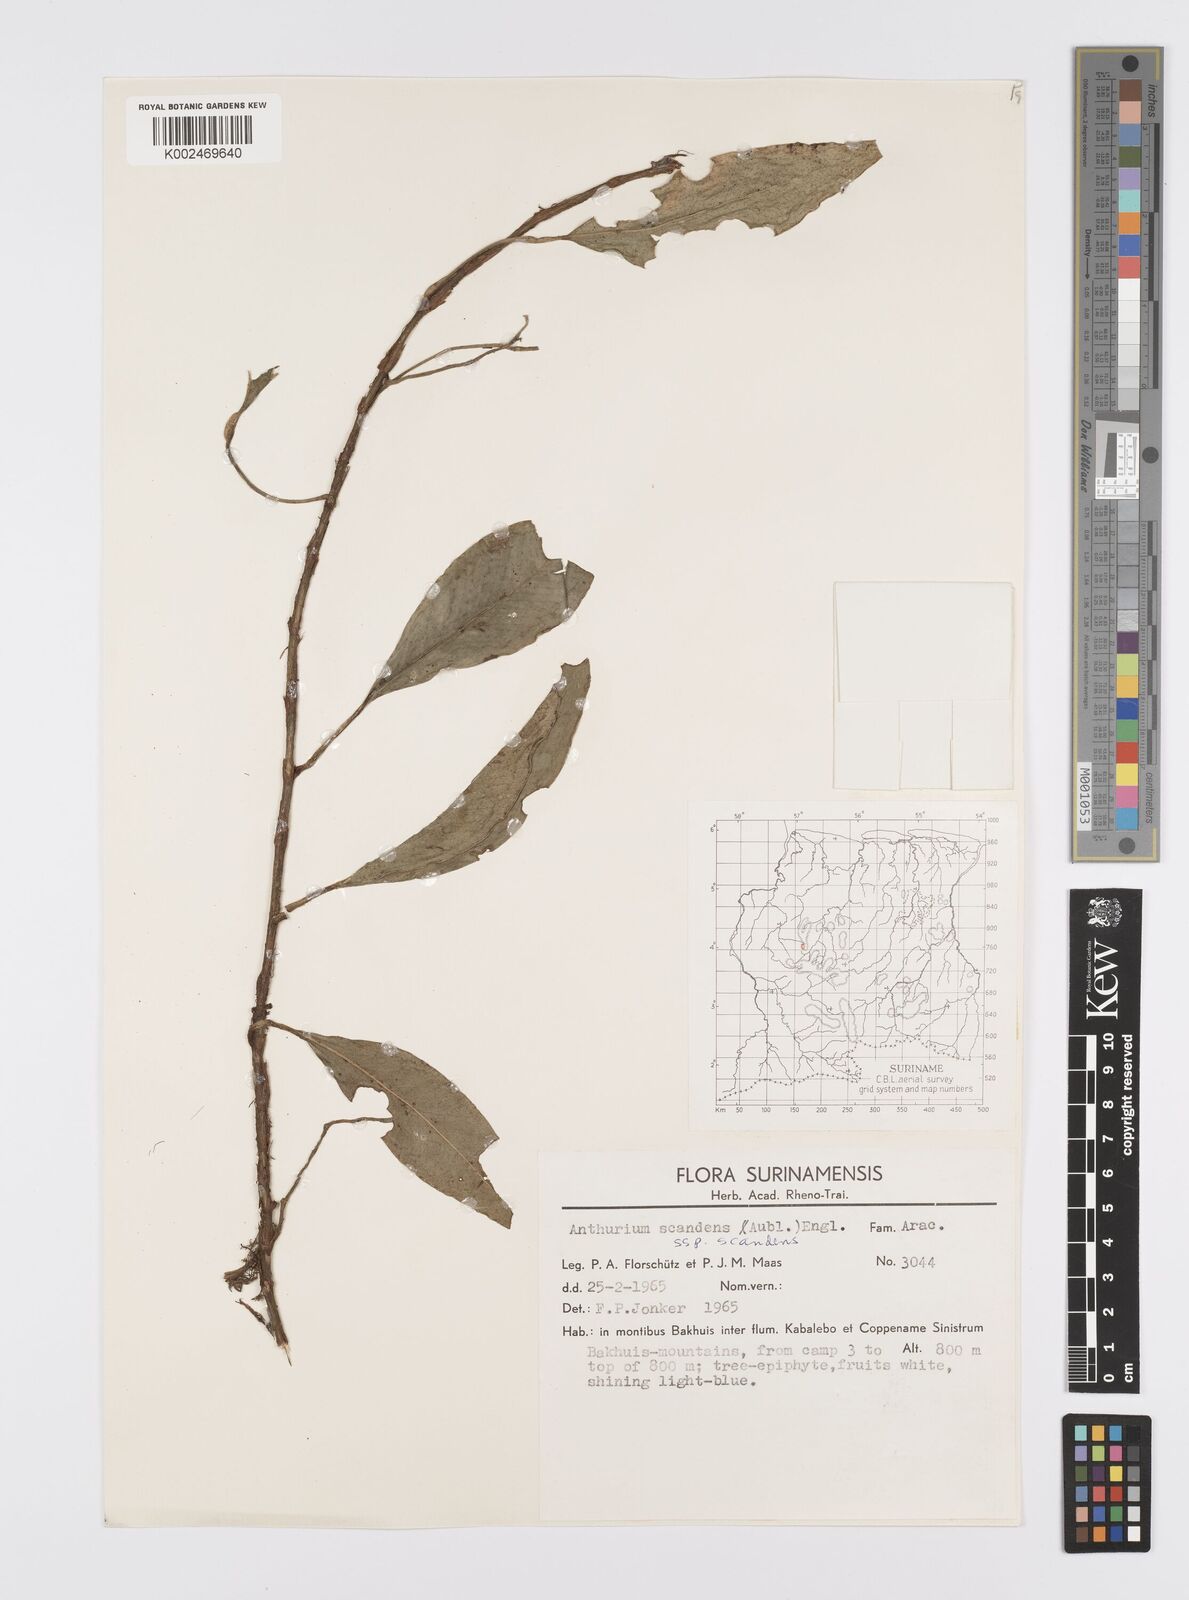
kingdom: Plantae
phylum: Tracheophyta
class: Liliopsida
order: Alismatales
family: Araceae
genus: Anthurium
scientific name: Anthurium scandens
